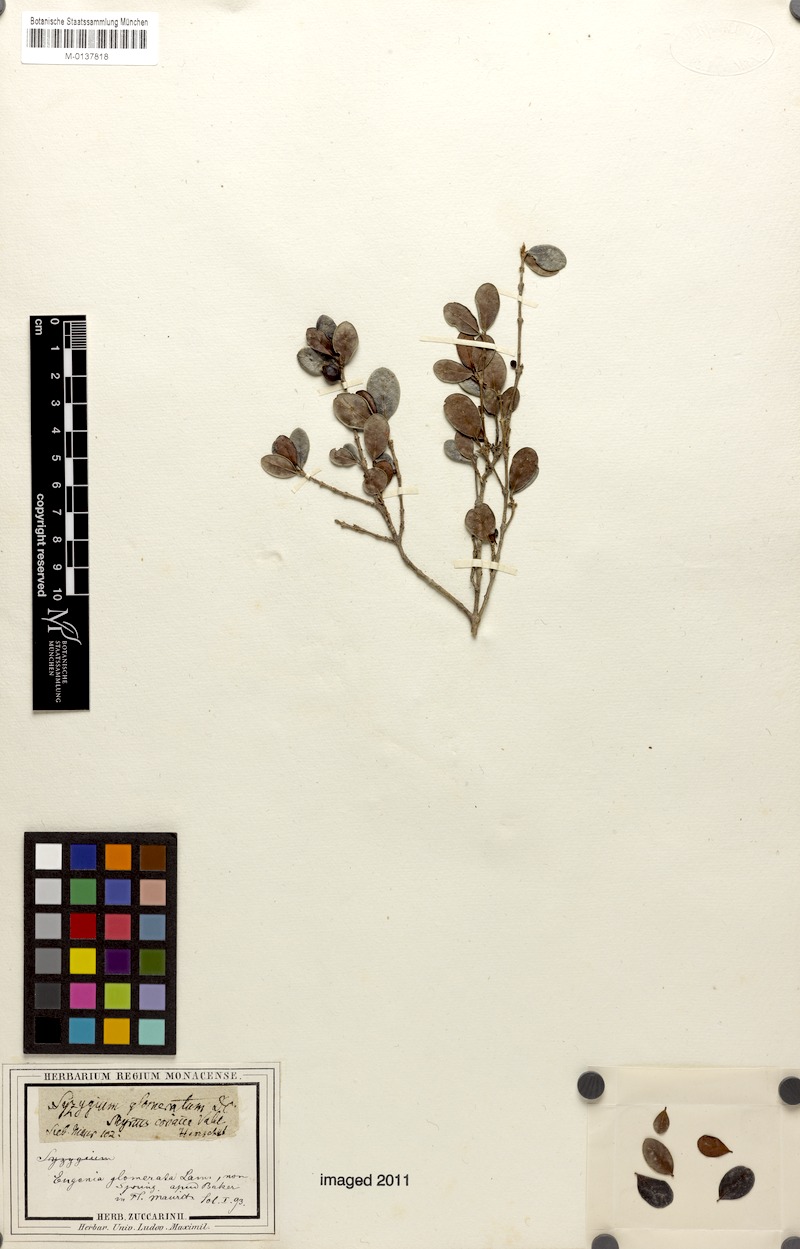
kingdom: Plantae
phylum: Tracheophyta
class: Magnoliopsida
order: Myrtales
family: Myrtaceae
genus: Myrcia
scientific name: Myrcia chytraculia
